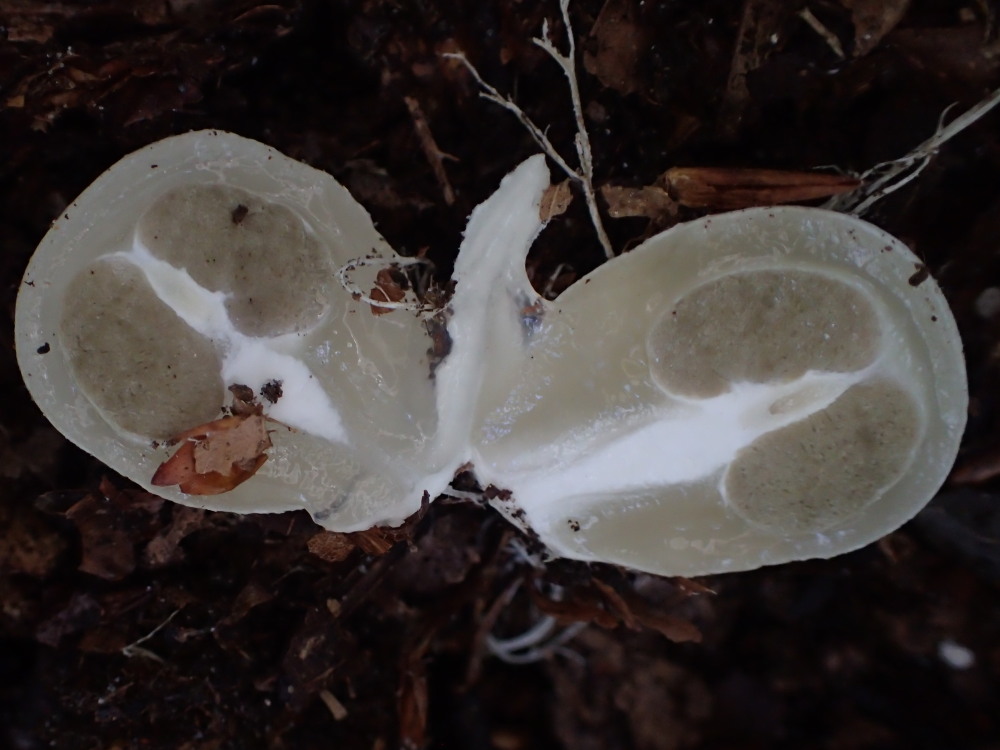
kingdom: Fungi
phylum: Basidiomycota
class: Agaricomycetes
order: Phallales
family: Phallaceae
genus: Mutinus
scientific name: Mutinus caninus
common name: hunde-stinksvamp
